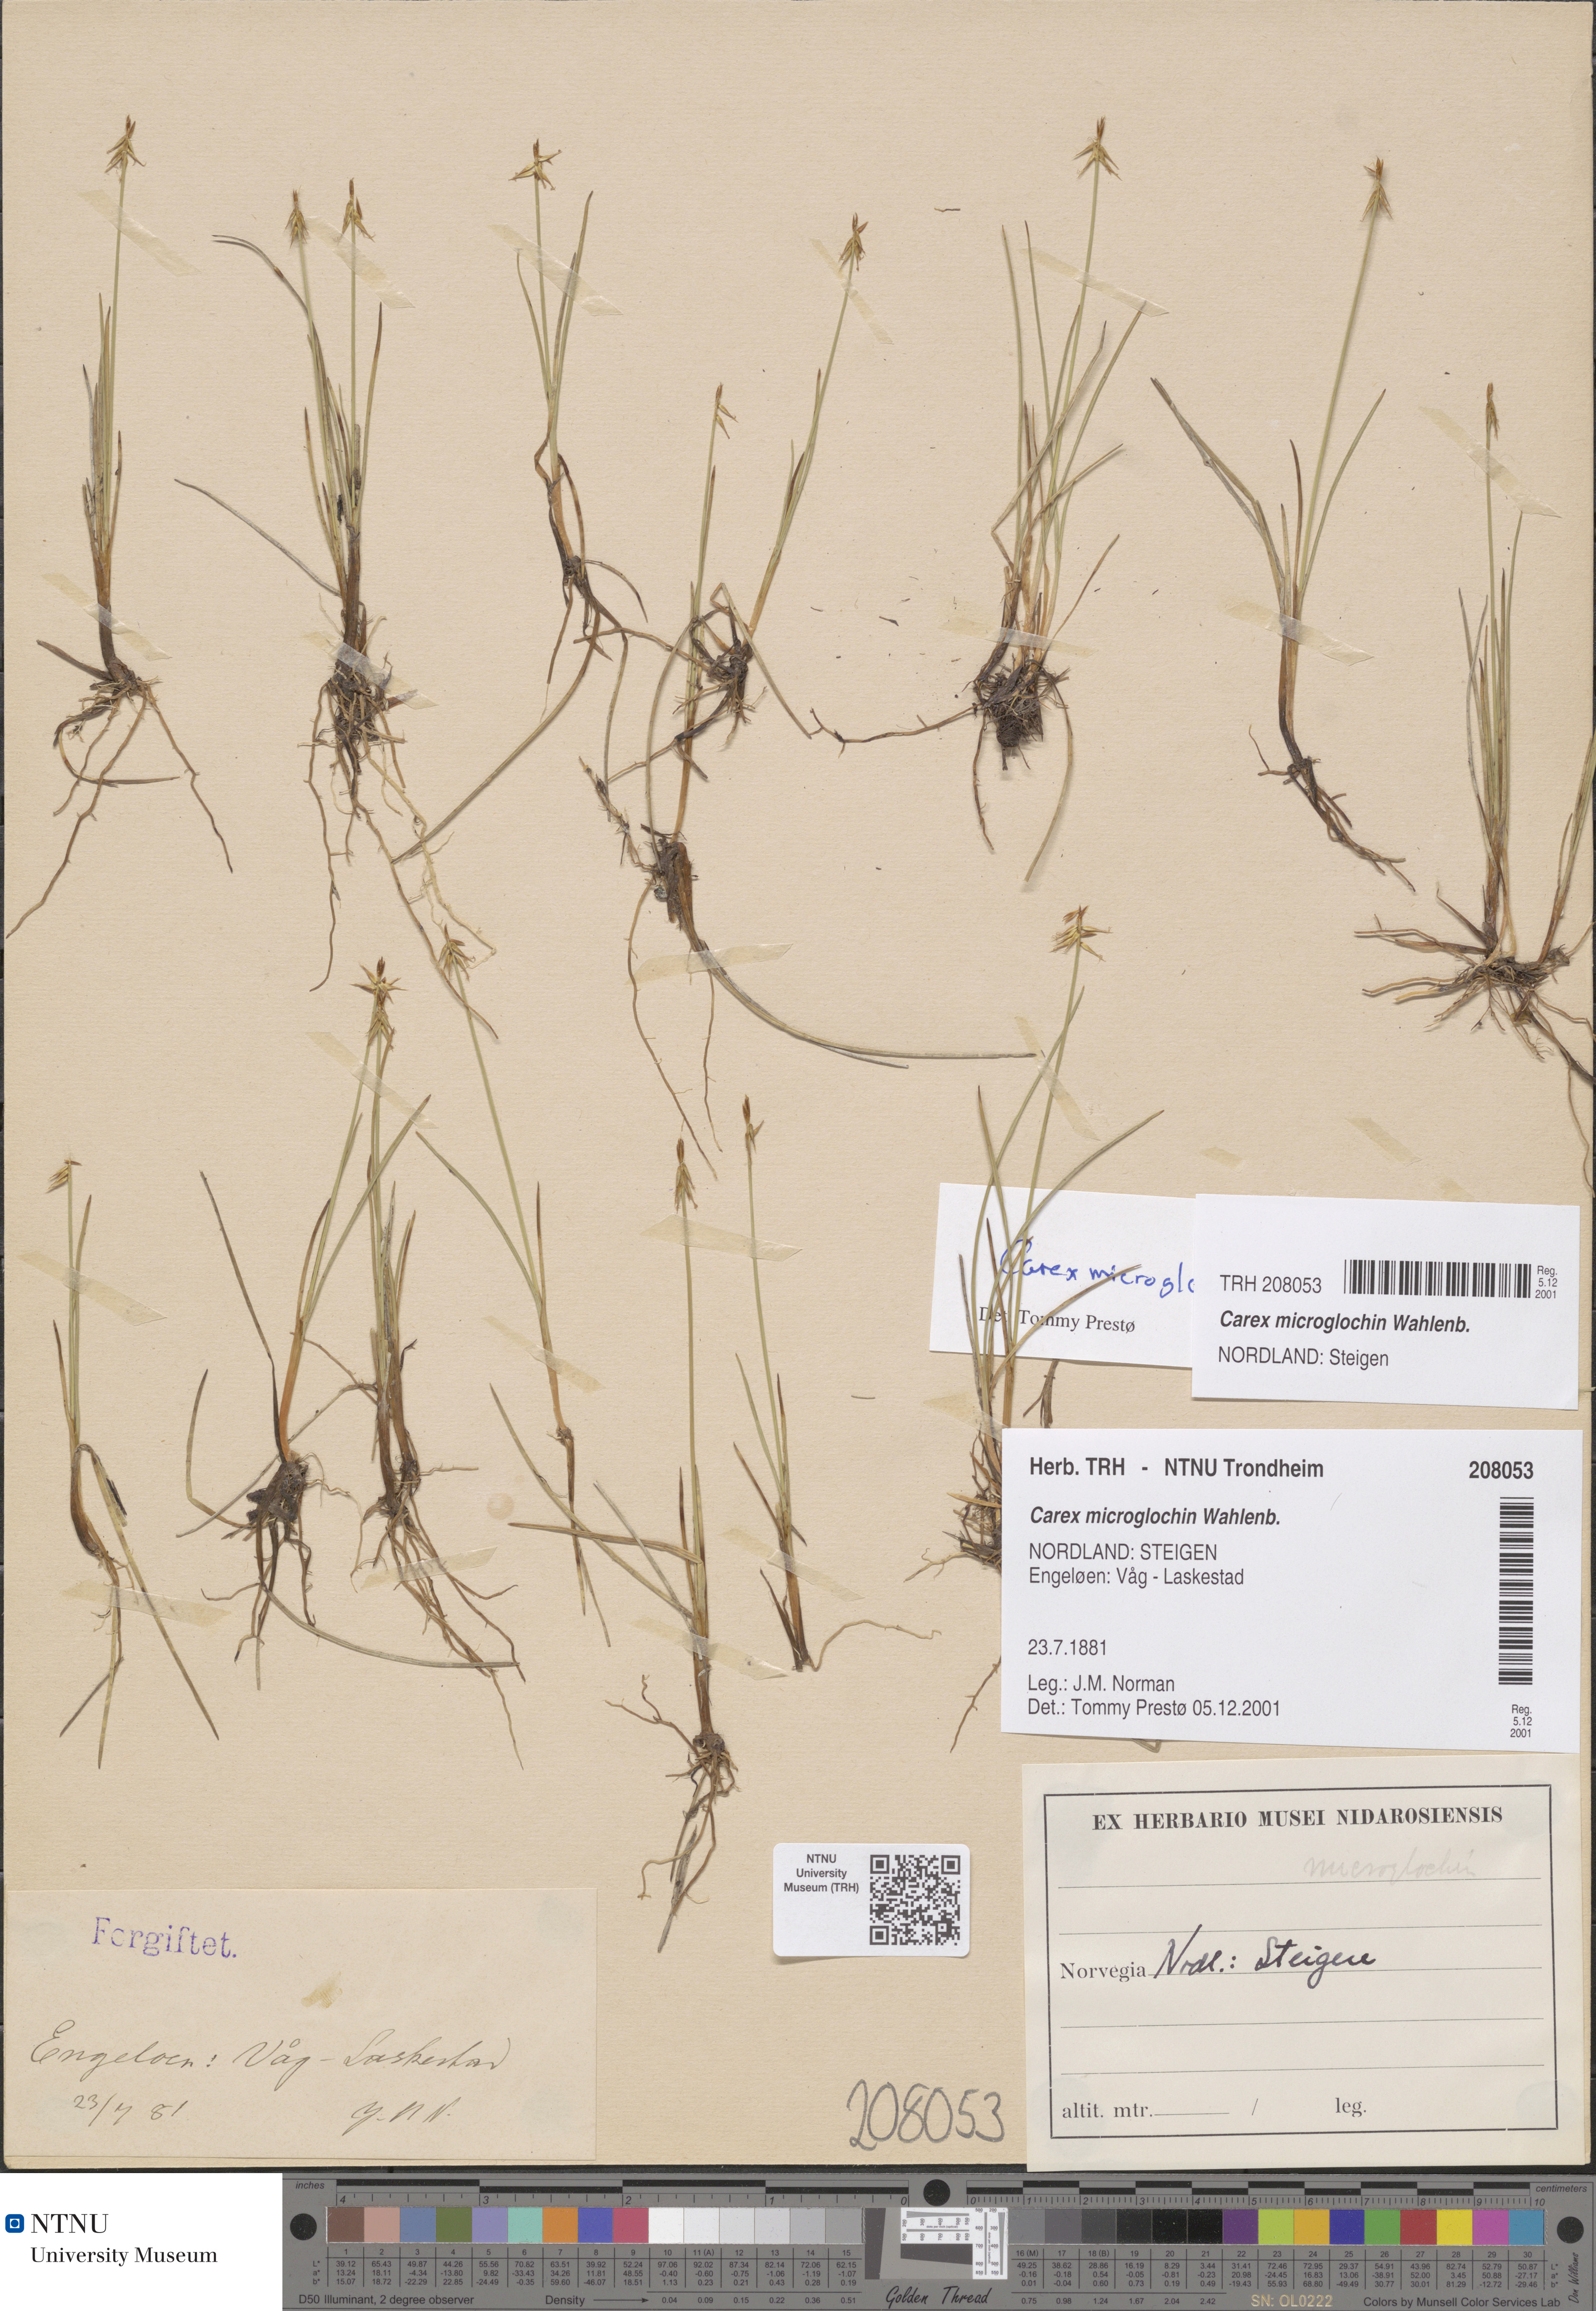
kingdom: Plantae
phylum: Tracheophyta
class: Liliopsida
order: Poales
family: Cyperaceae
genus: Carex
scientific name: Carex microglochin
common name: Bristle sedge
